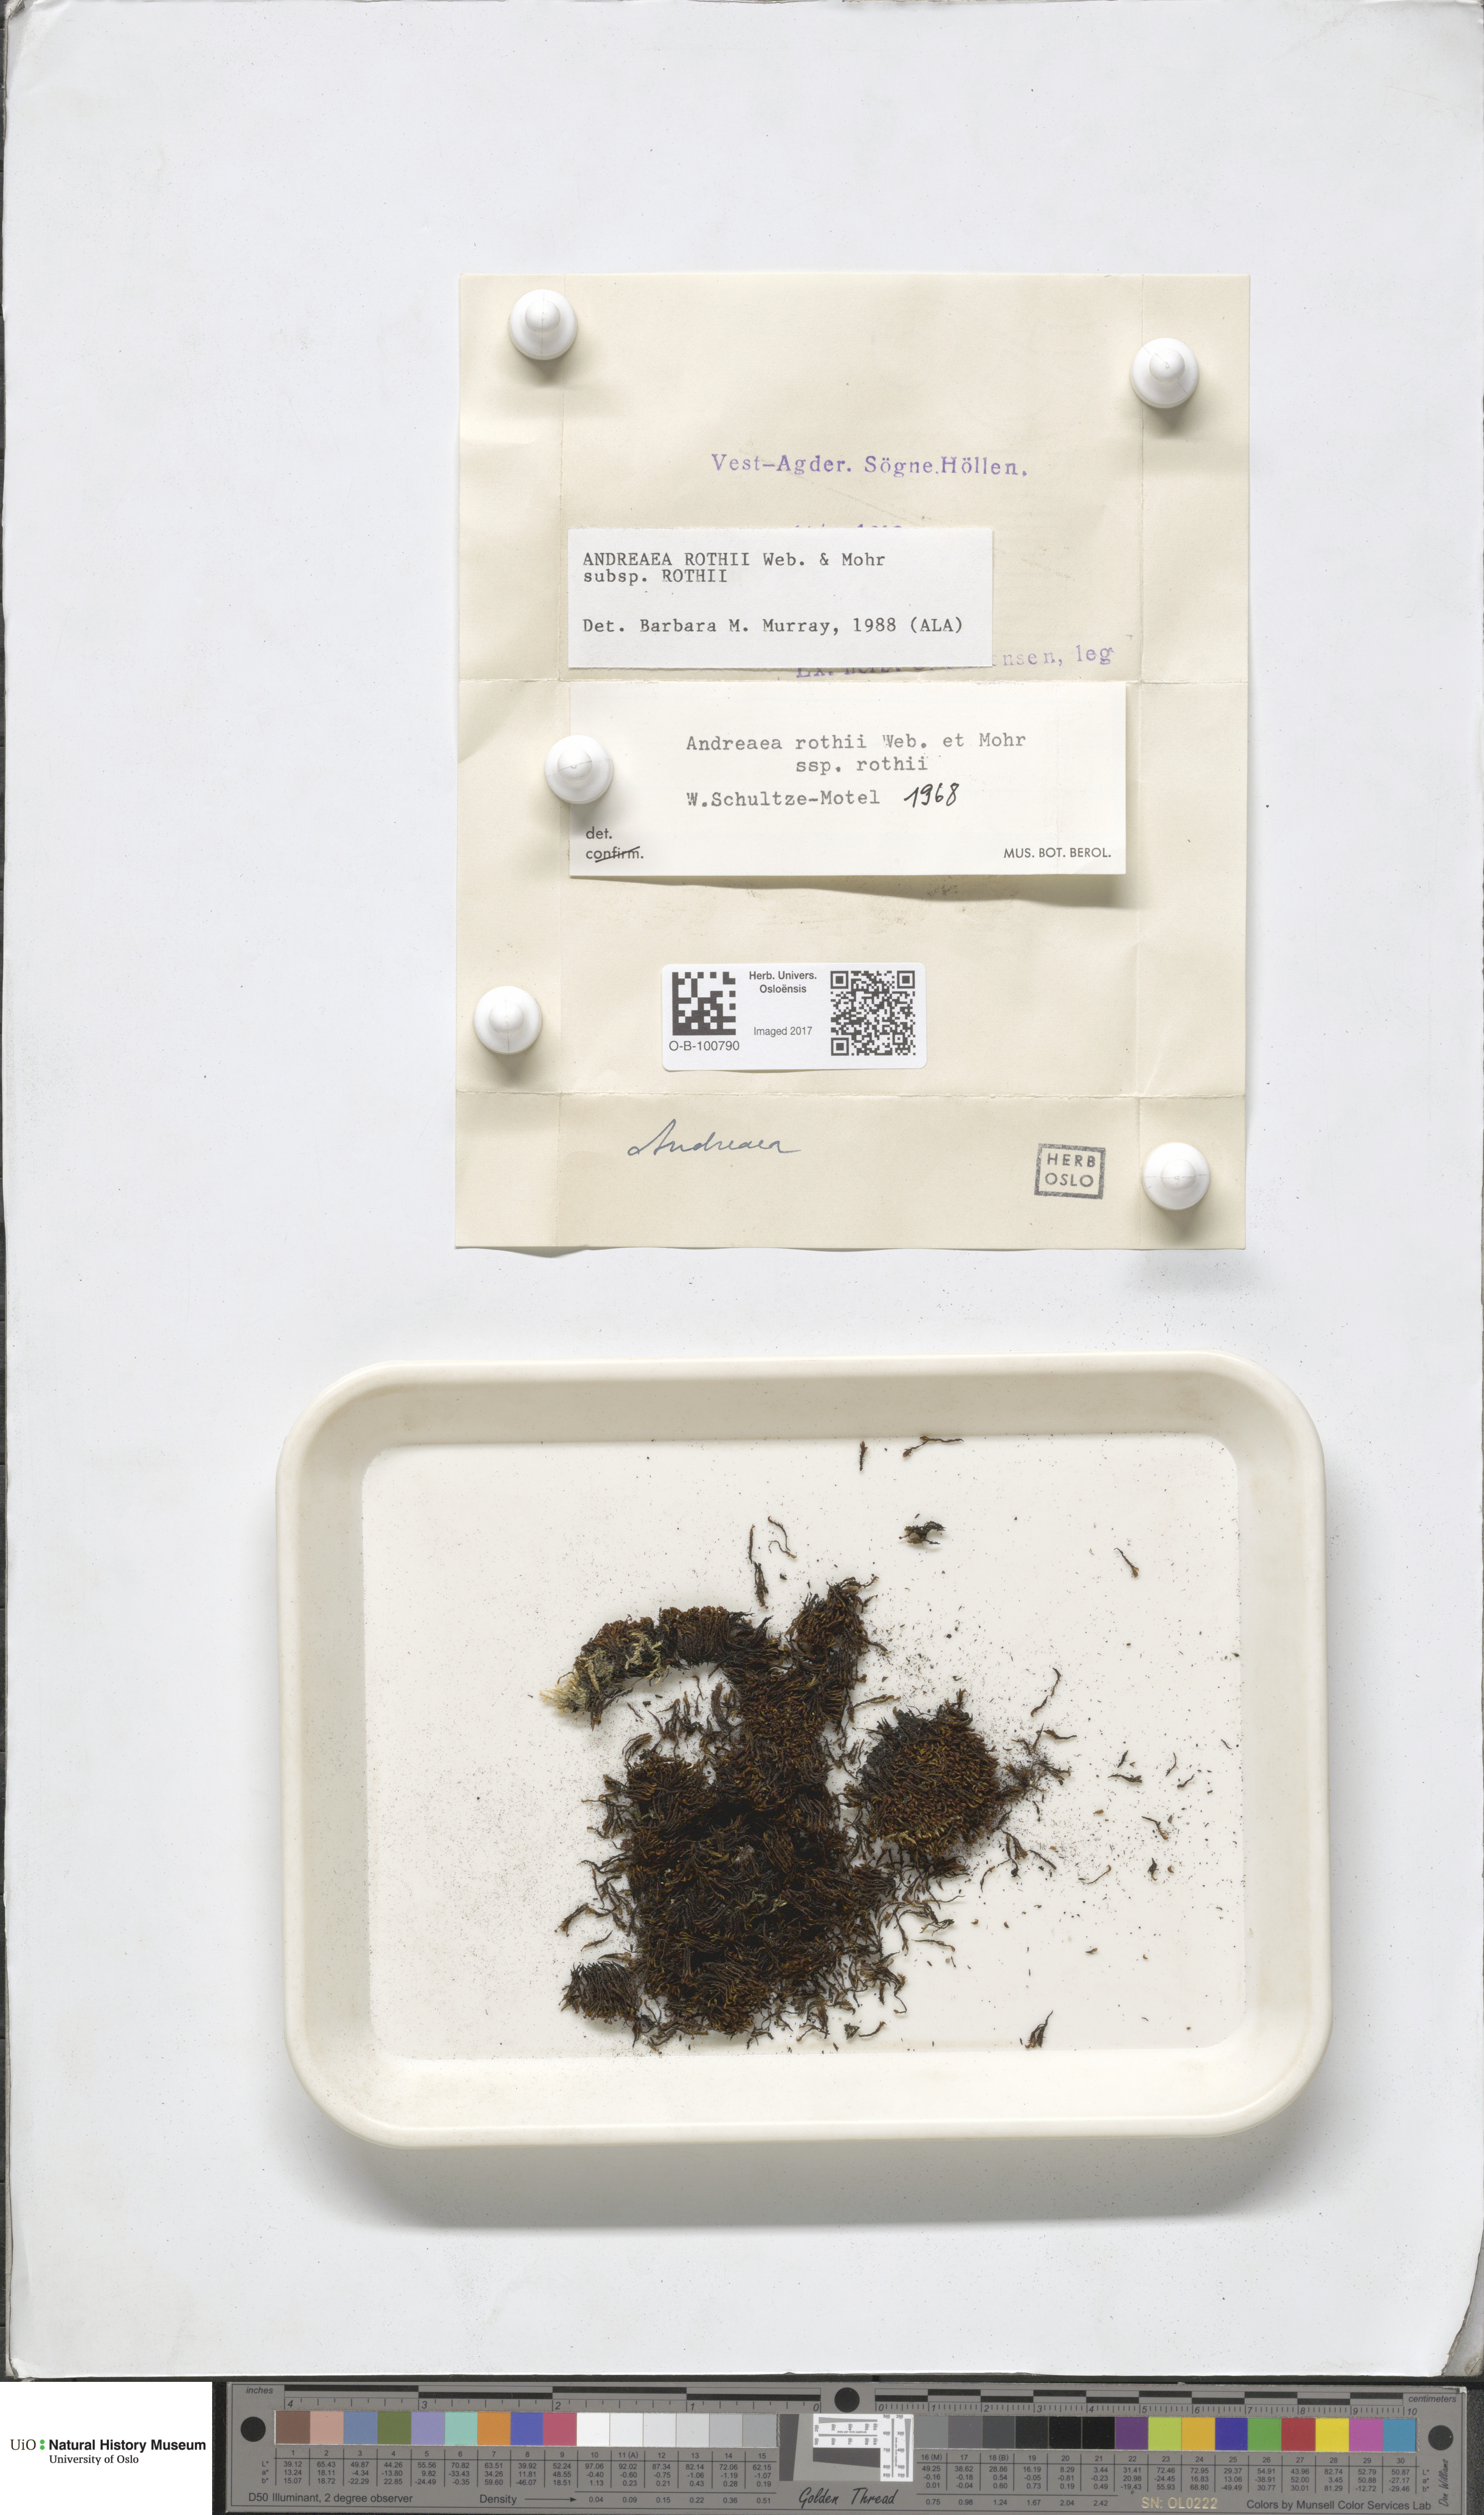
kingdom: Plantae
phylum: Bryophyta
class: Andreaeopsida
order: Andreaeales
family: Andreaeaceae
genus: Andreaea
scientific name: Andreaea rothii
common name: Dusky rock moss
